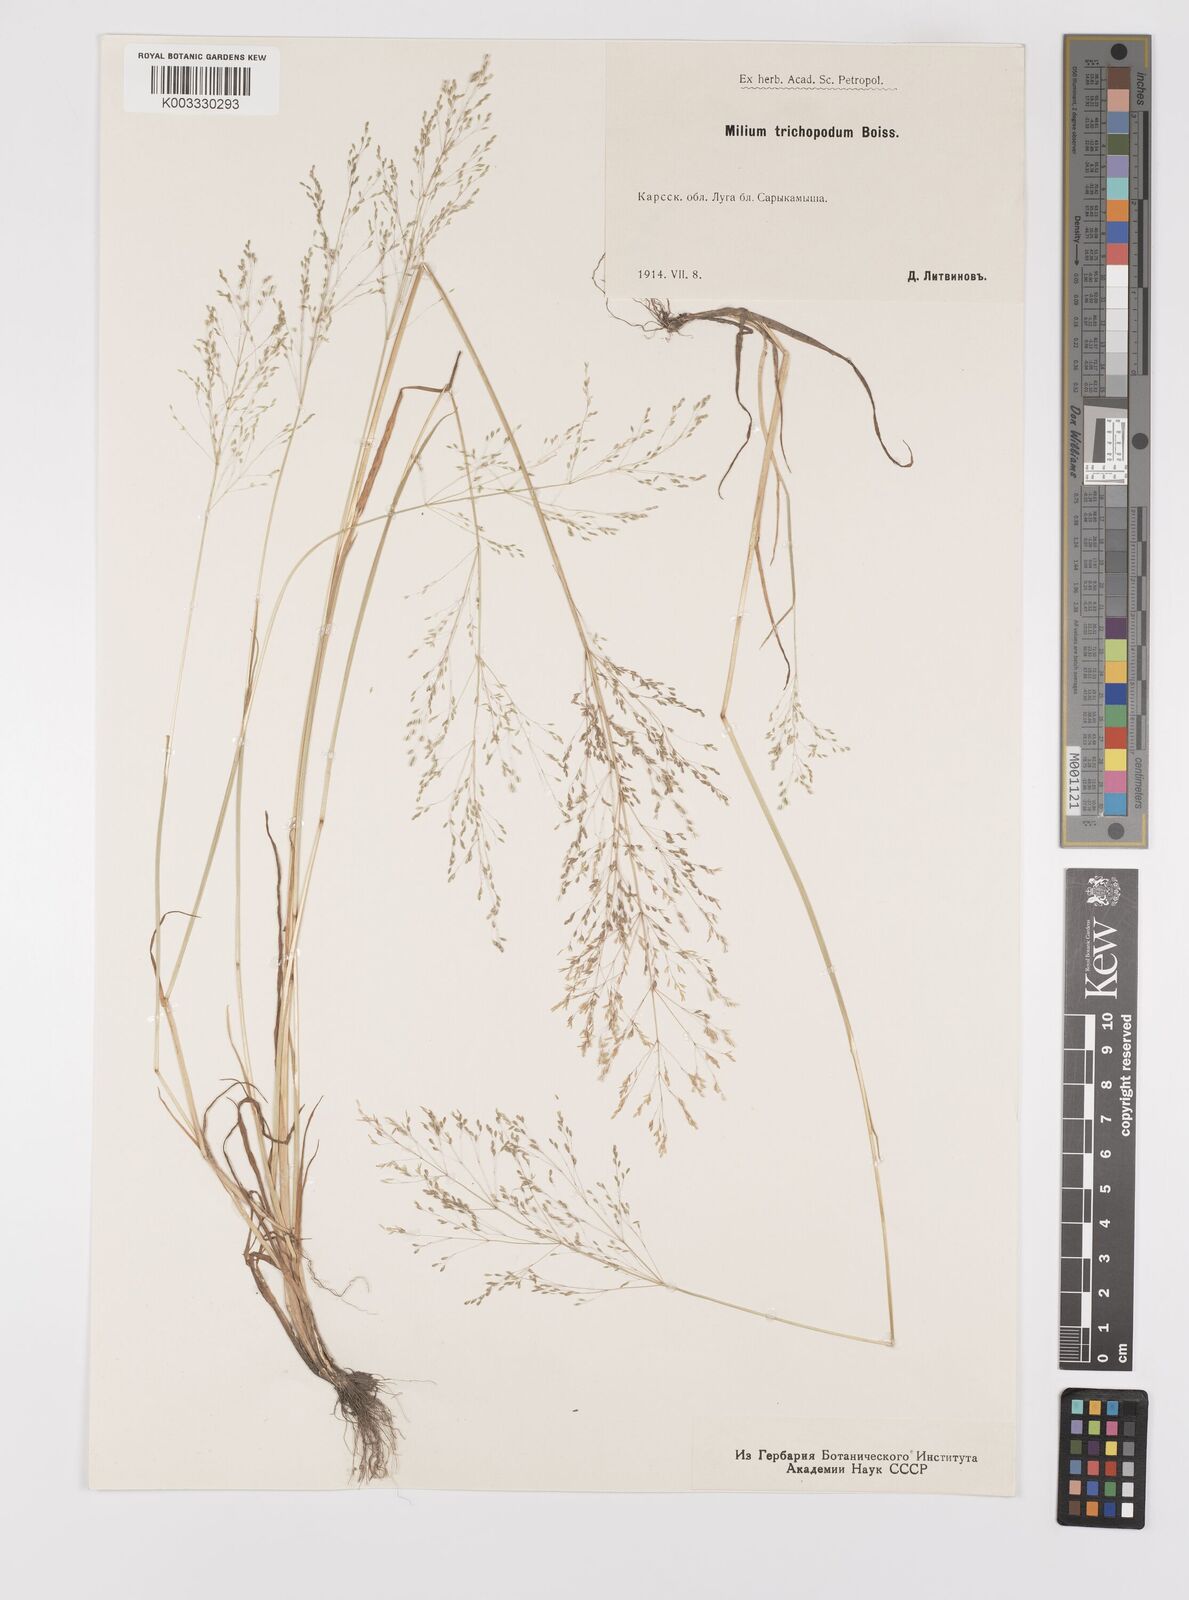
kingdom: Plantae
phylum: Tracheophyta
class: Liliopsida
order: Poales
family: Poaceae
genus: Colpodium
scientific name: Colpodium pisidicum
